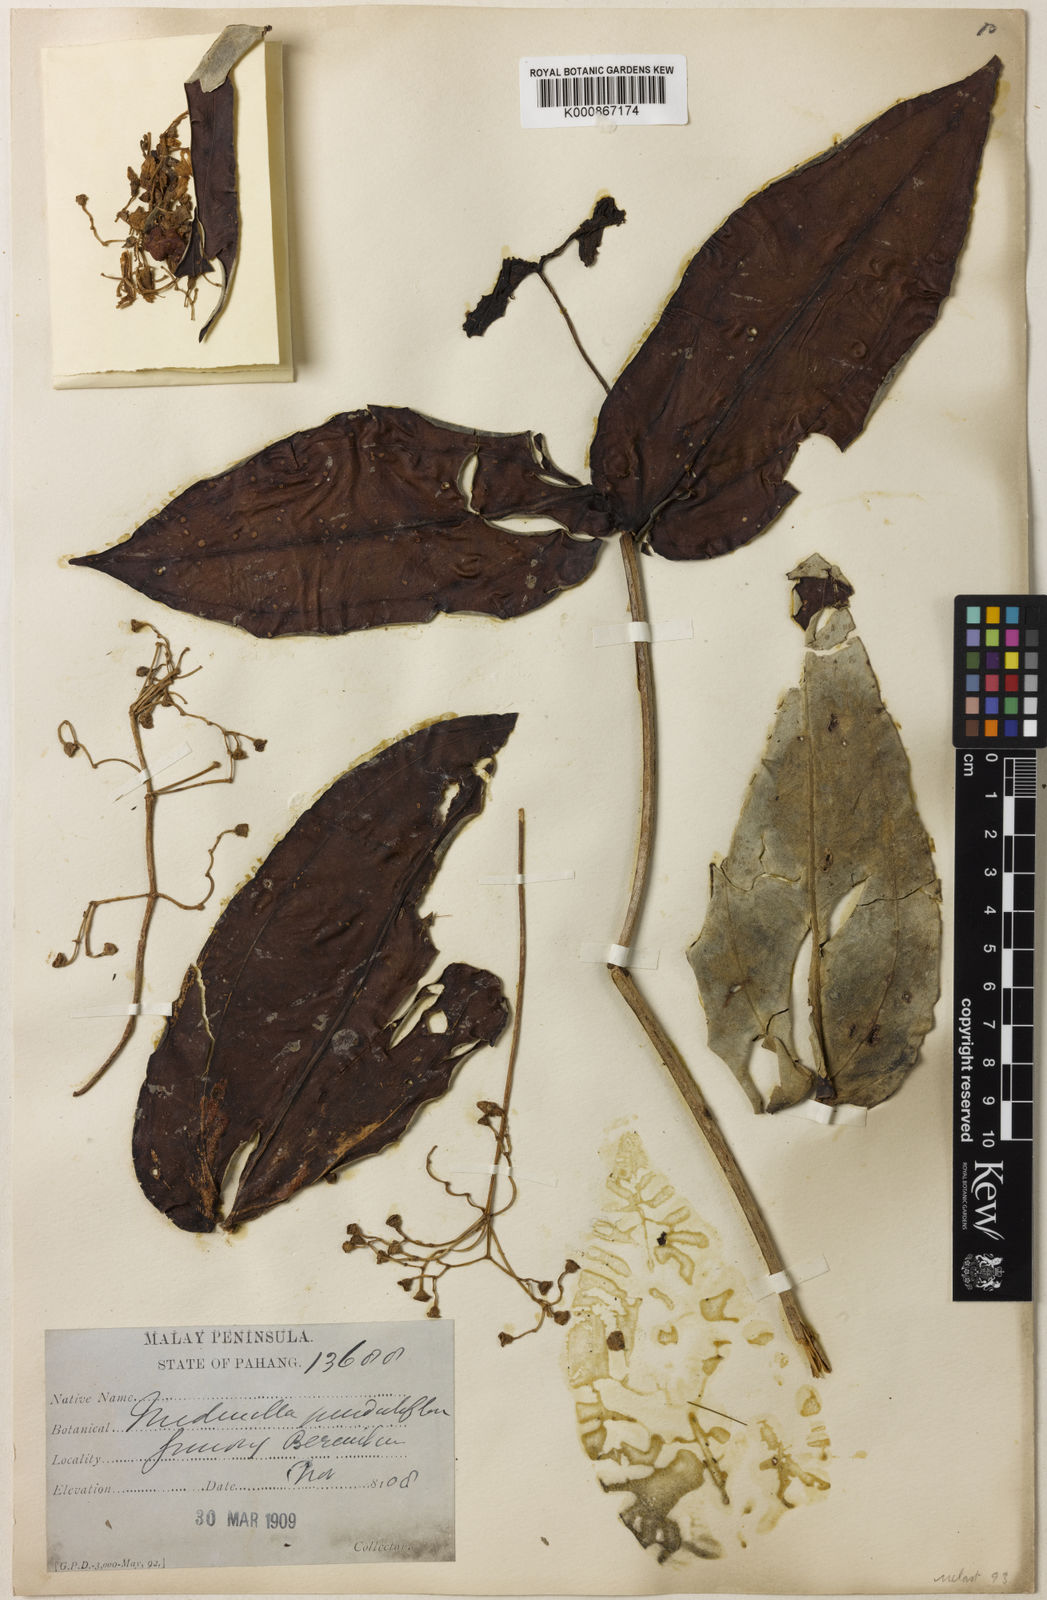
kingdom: Plantae
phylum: Tracheophyta
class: Magnoliopsida
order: Myrtales
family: Melastomataceae
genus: Medinilla
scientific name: Medinilla alpestris
